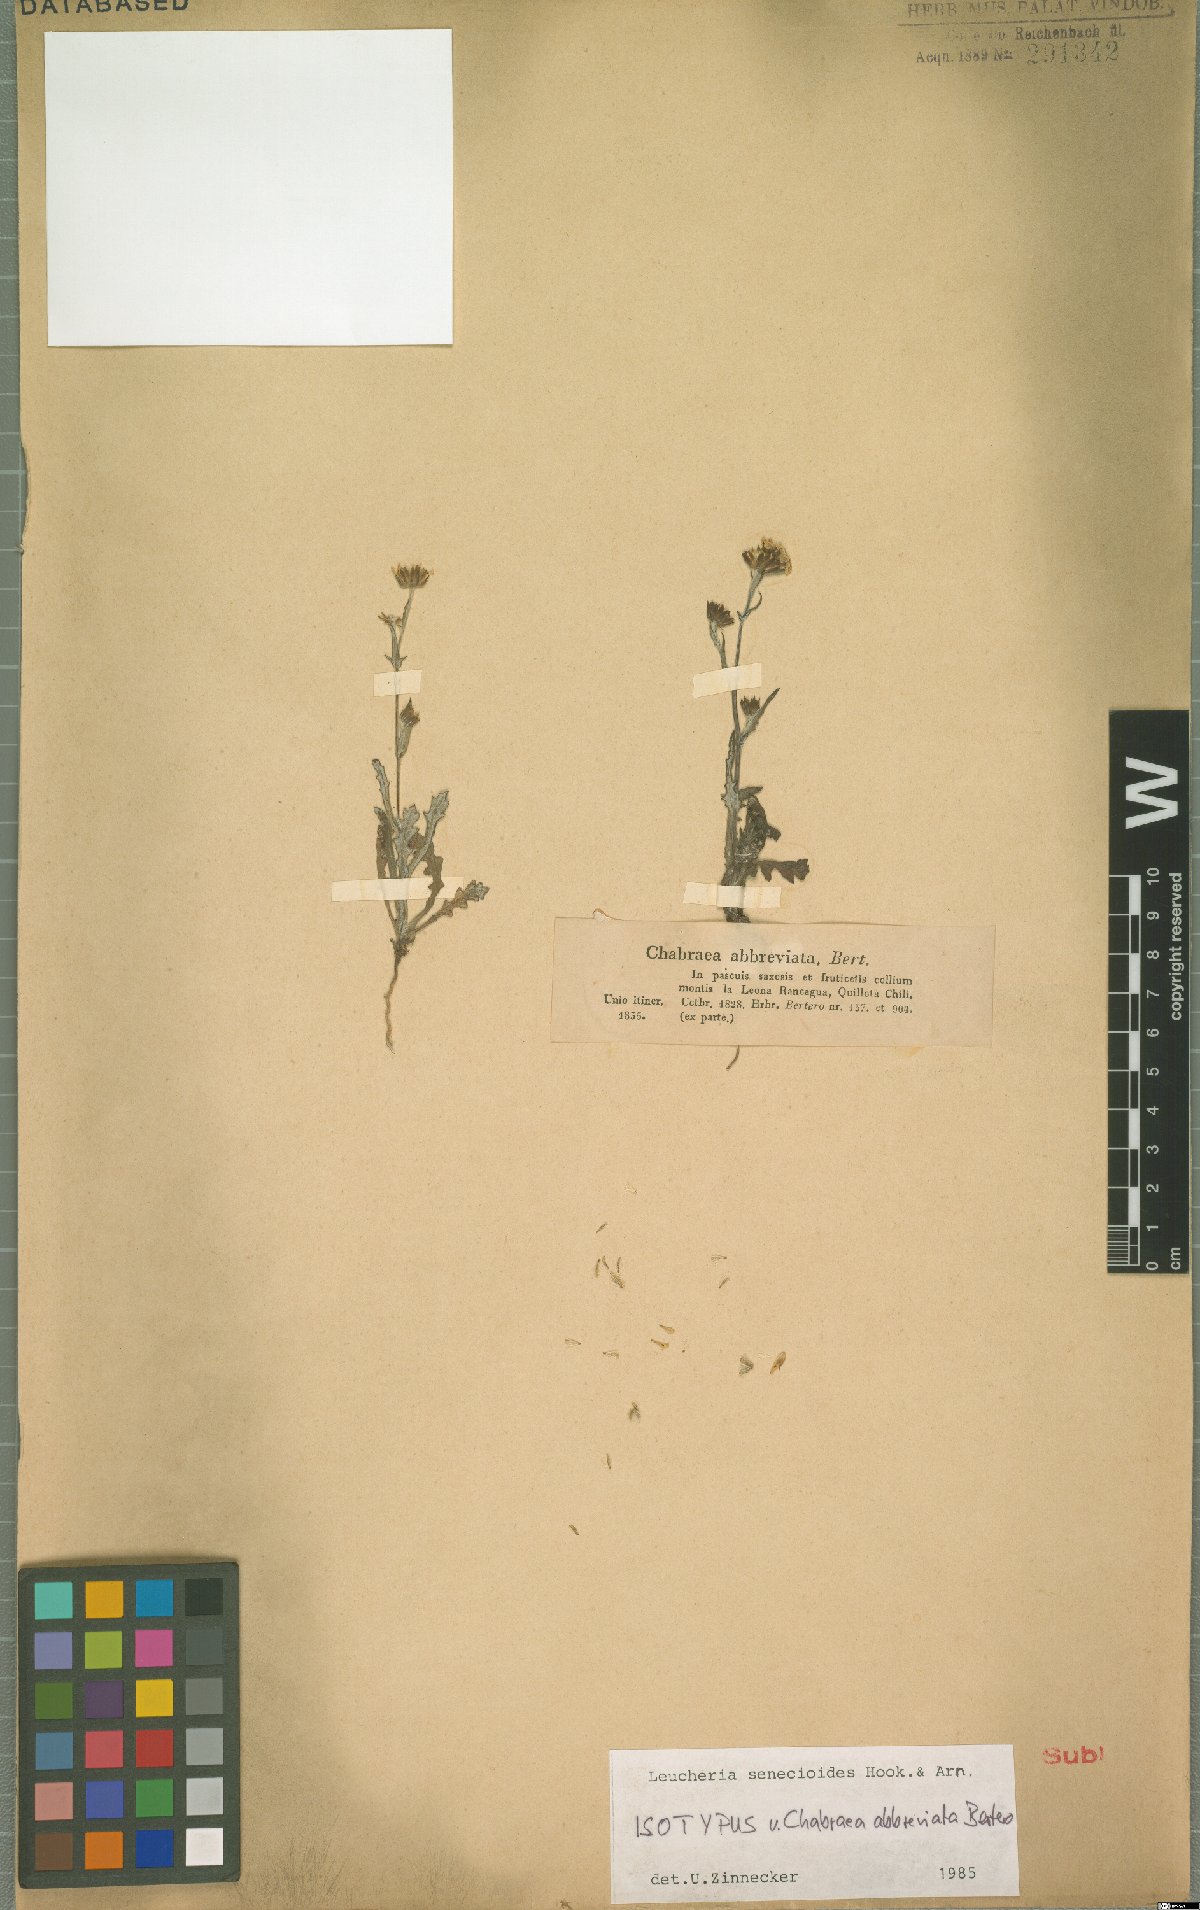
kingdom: Plantae
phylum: Tracheophyta
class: Magnoliopsida
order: Asterales
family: Asteraceae
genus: Leucheria
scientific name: Leucheria senecioides
